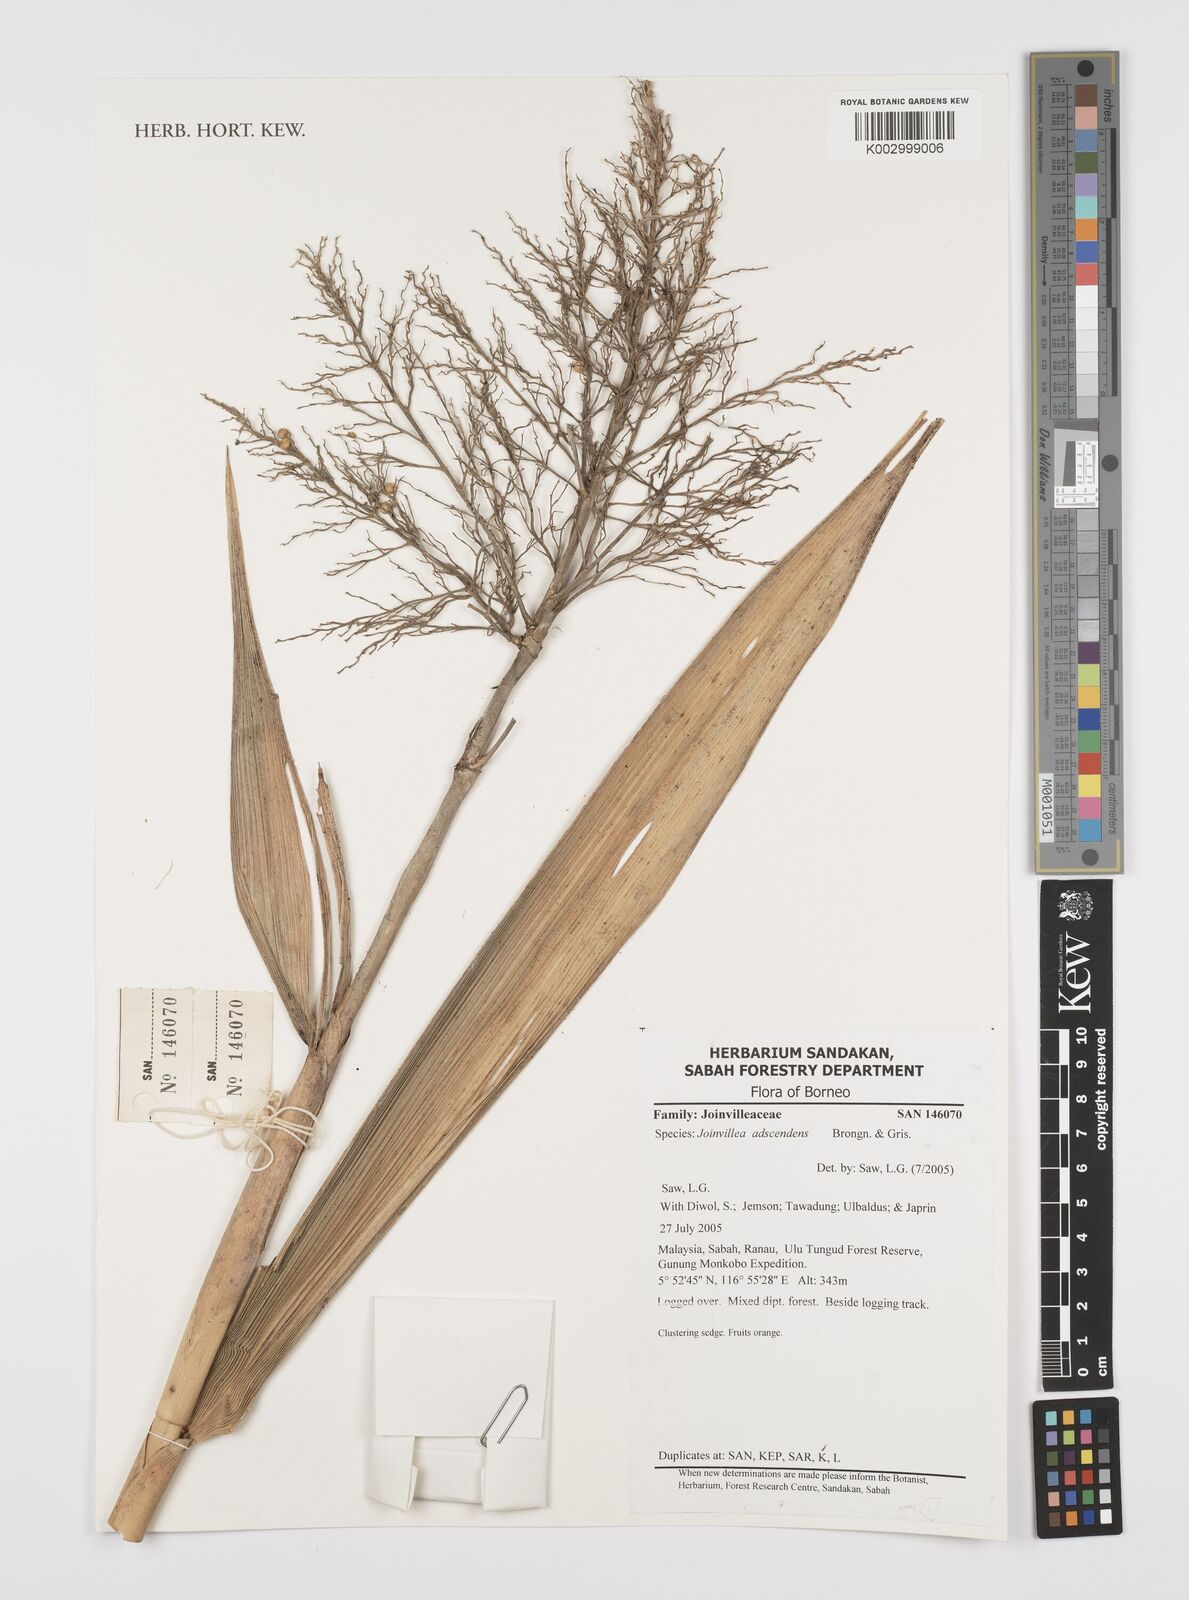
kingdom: Plantae
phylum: Tracheophyta
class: Liliopsida
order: Poales
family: Joinvilleaceae
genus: Joinvillea
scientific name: Joinvillea borneensis
